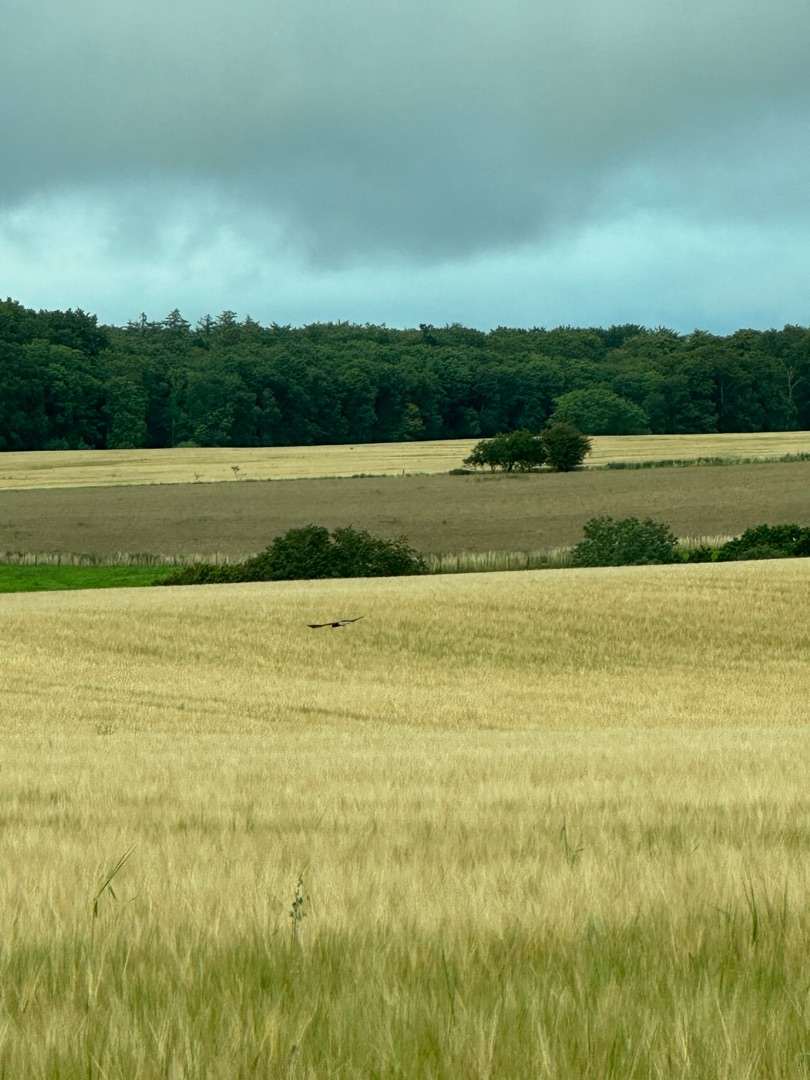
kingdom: Animalia
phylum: Chordata
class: Aves
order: Accipitriformes
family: Accipitridae
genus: Circus
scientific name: Circus aeruginosus
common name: Rørhøg
